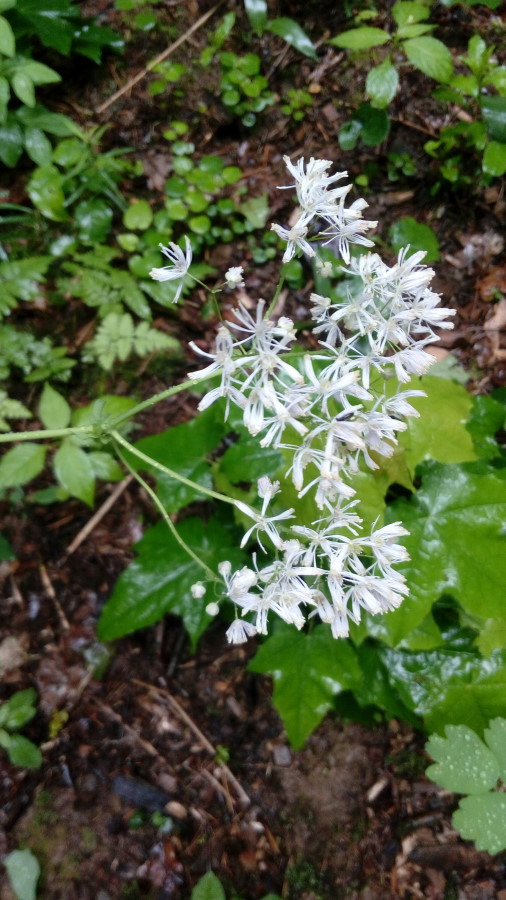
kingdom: Plantae
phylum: Tracheophyta
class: Magnoliopsida
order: Ranunculales
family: Ranunculaceae
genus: Thalictrum
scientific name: Thalictrum aquilegiifolium
